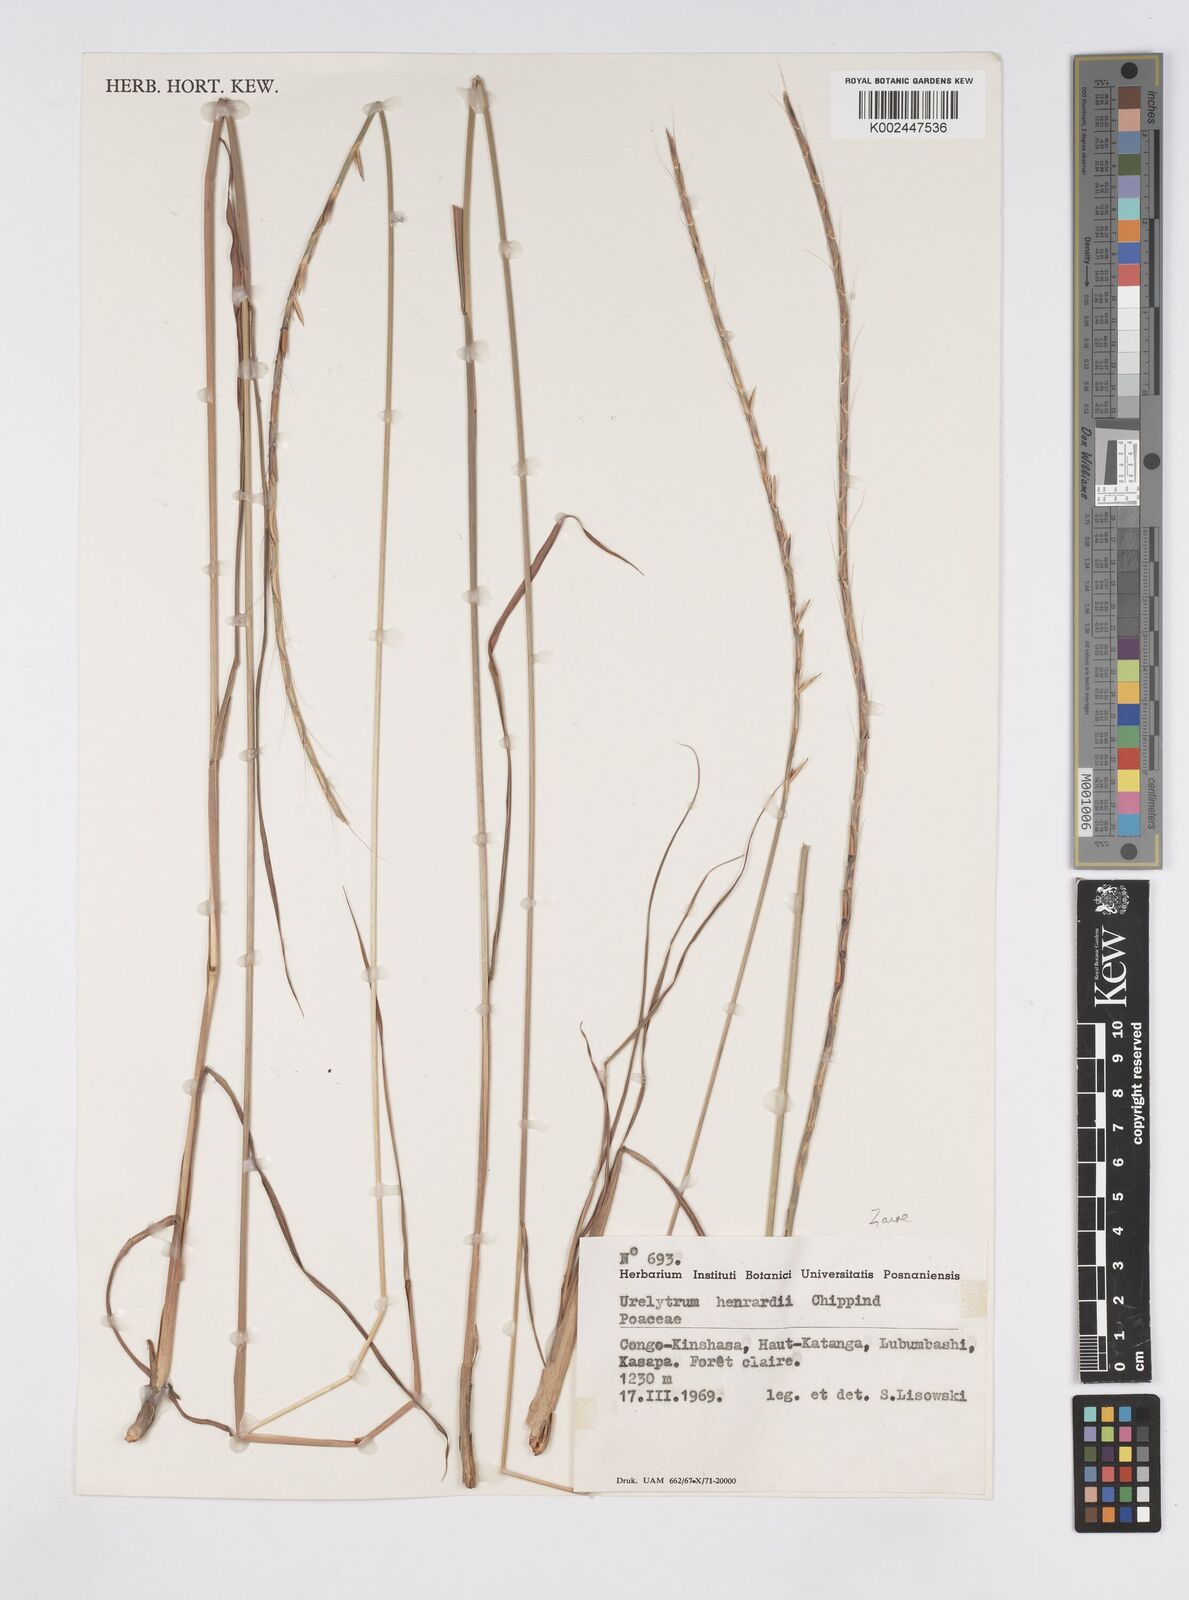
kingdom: Plantae
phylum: Tracheophyta
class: Liliopsida
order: Poales
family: Poaceae
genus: Urelytrum
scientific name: Urelytrum henrardii
